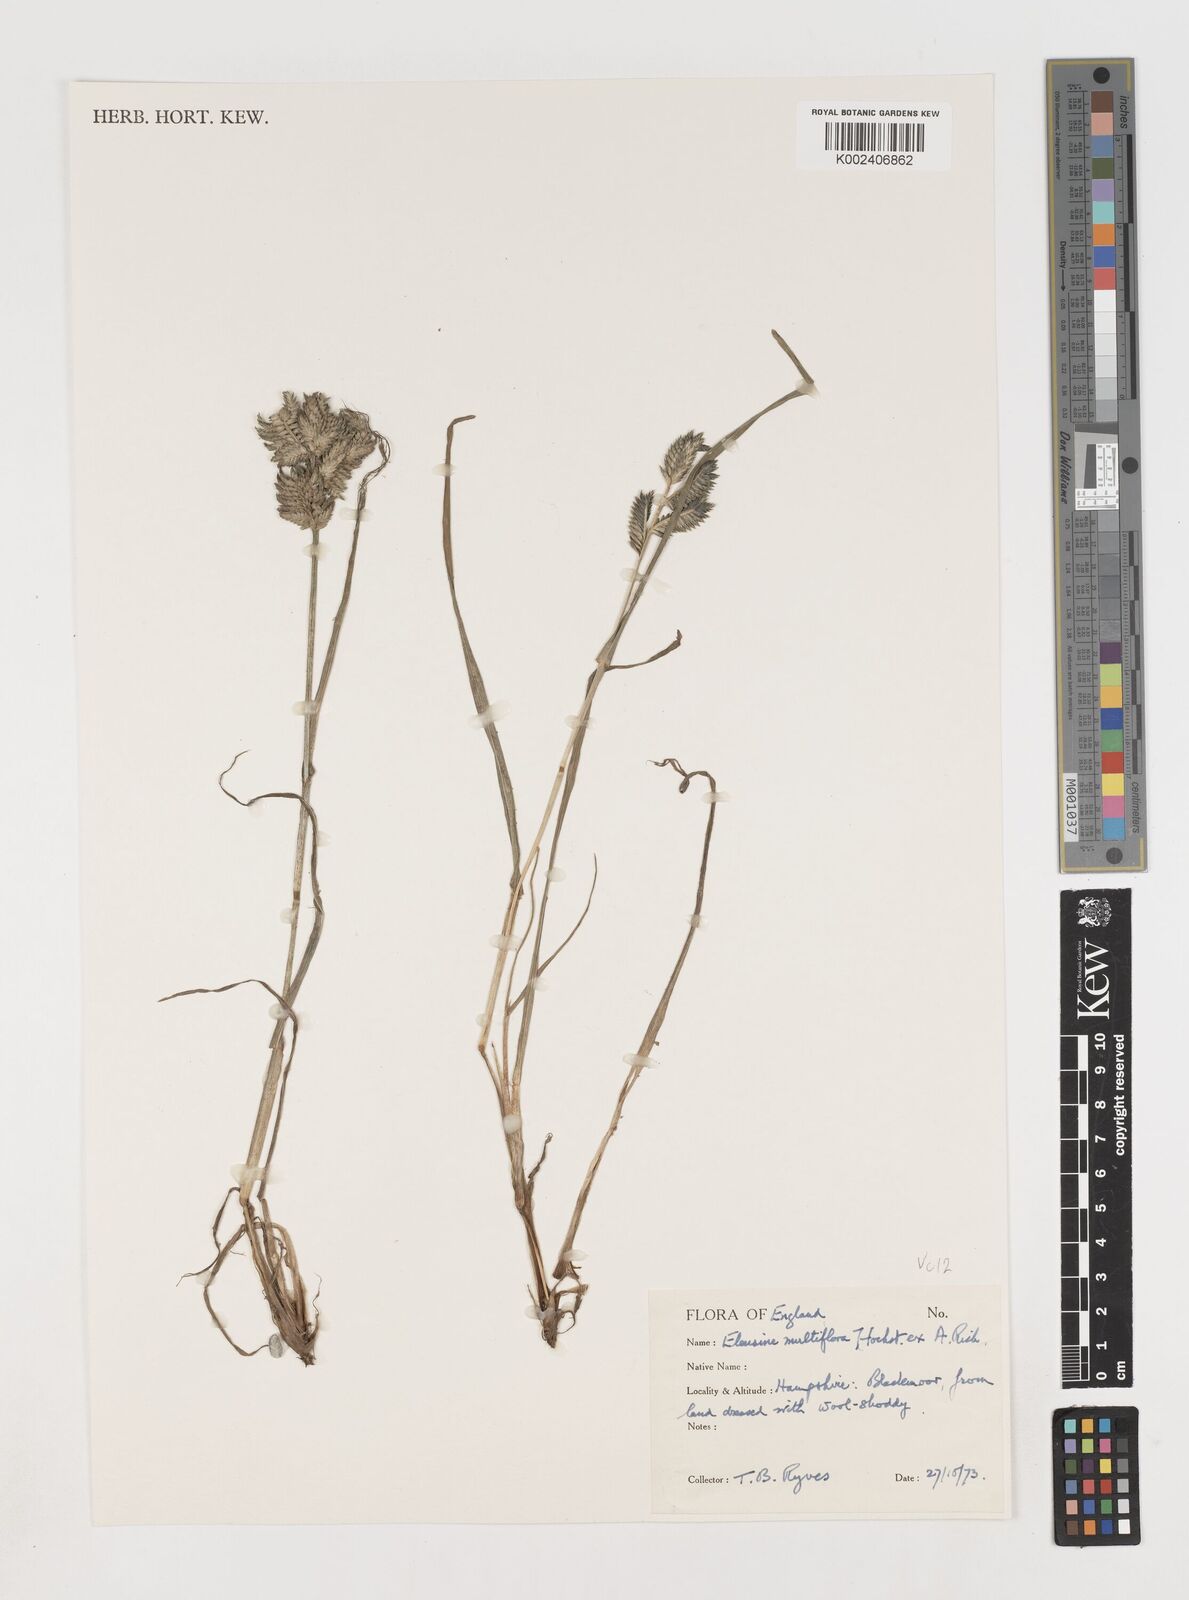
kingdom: Plantae
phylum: Tracheophyta
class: Liliopsida
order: Poales
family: Poaceae
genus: Eleusine
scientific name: Eleusine multiflora
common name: Fat-spiked yard-grass
